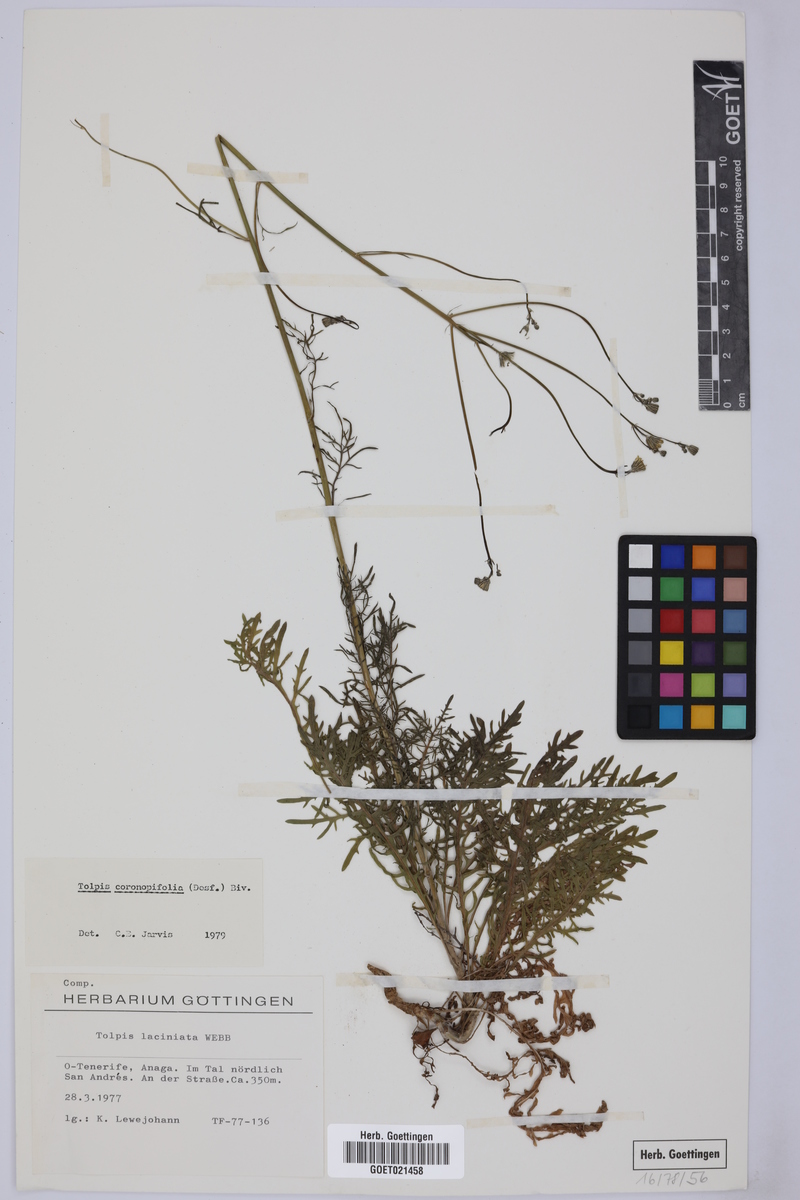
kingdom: Plantae
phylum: Tracheophyta
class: Magnoliopsida
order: Asterales
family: Asteraceae
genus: Tolpis
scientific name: Tolpis coronopifolia
